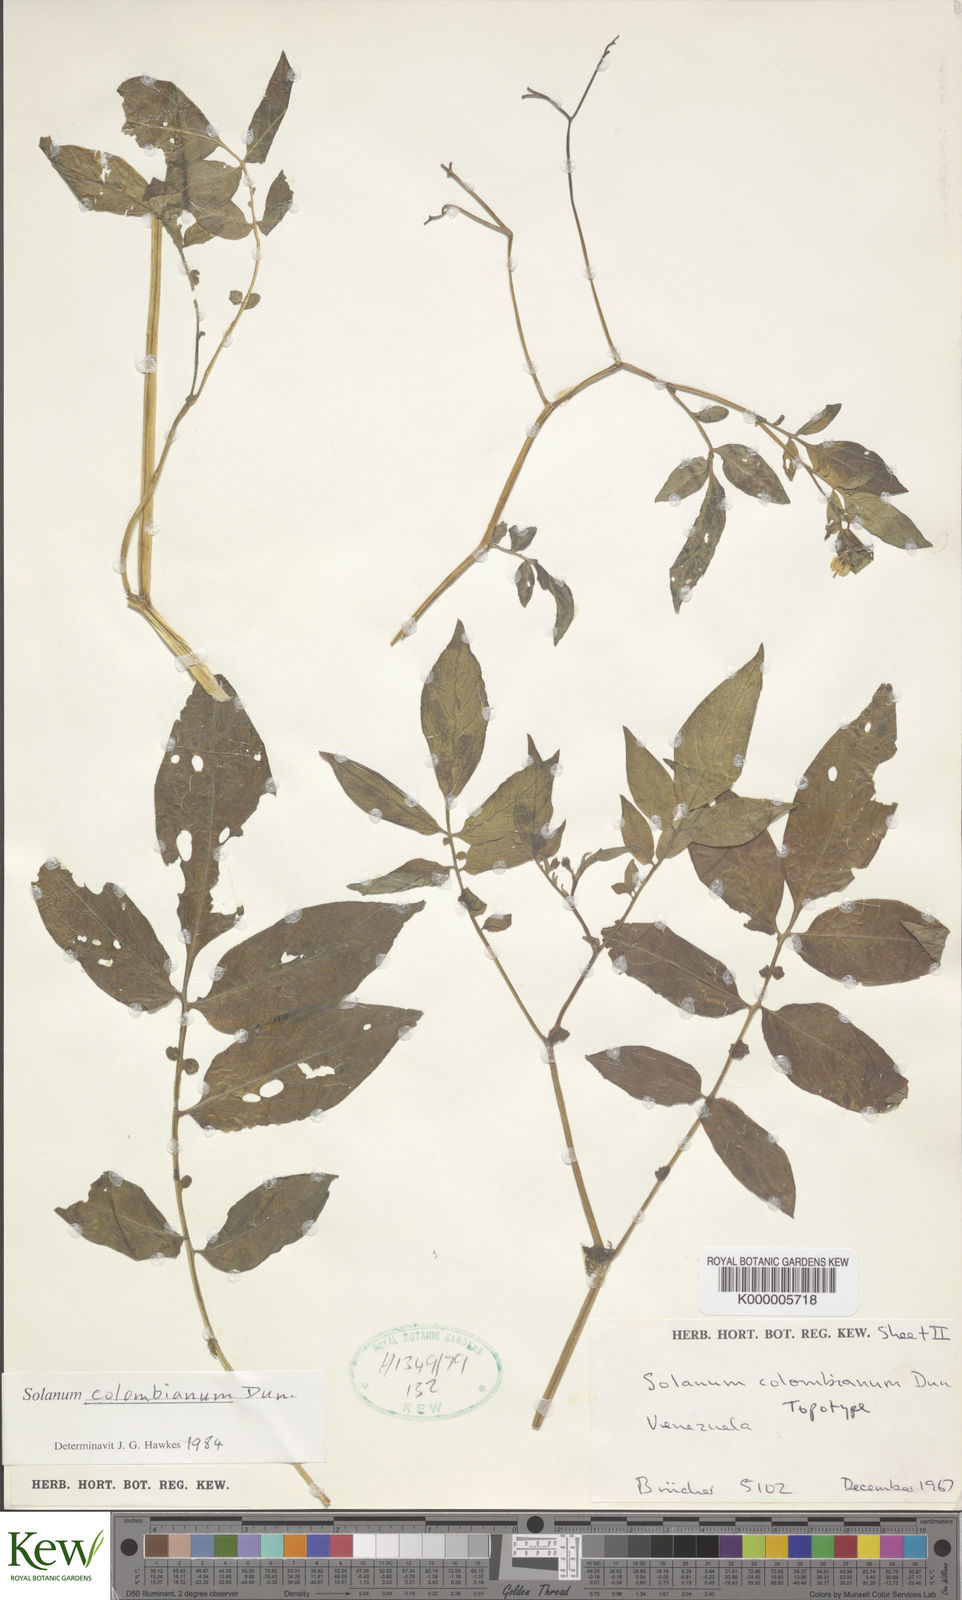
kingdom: Plantae
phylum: Tracheophyta
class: Magnoliopsida
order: Solanales
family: Solanaceae
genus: Solanum
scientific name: Solanum colombianum
